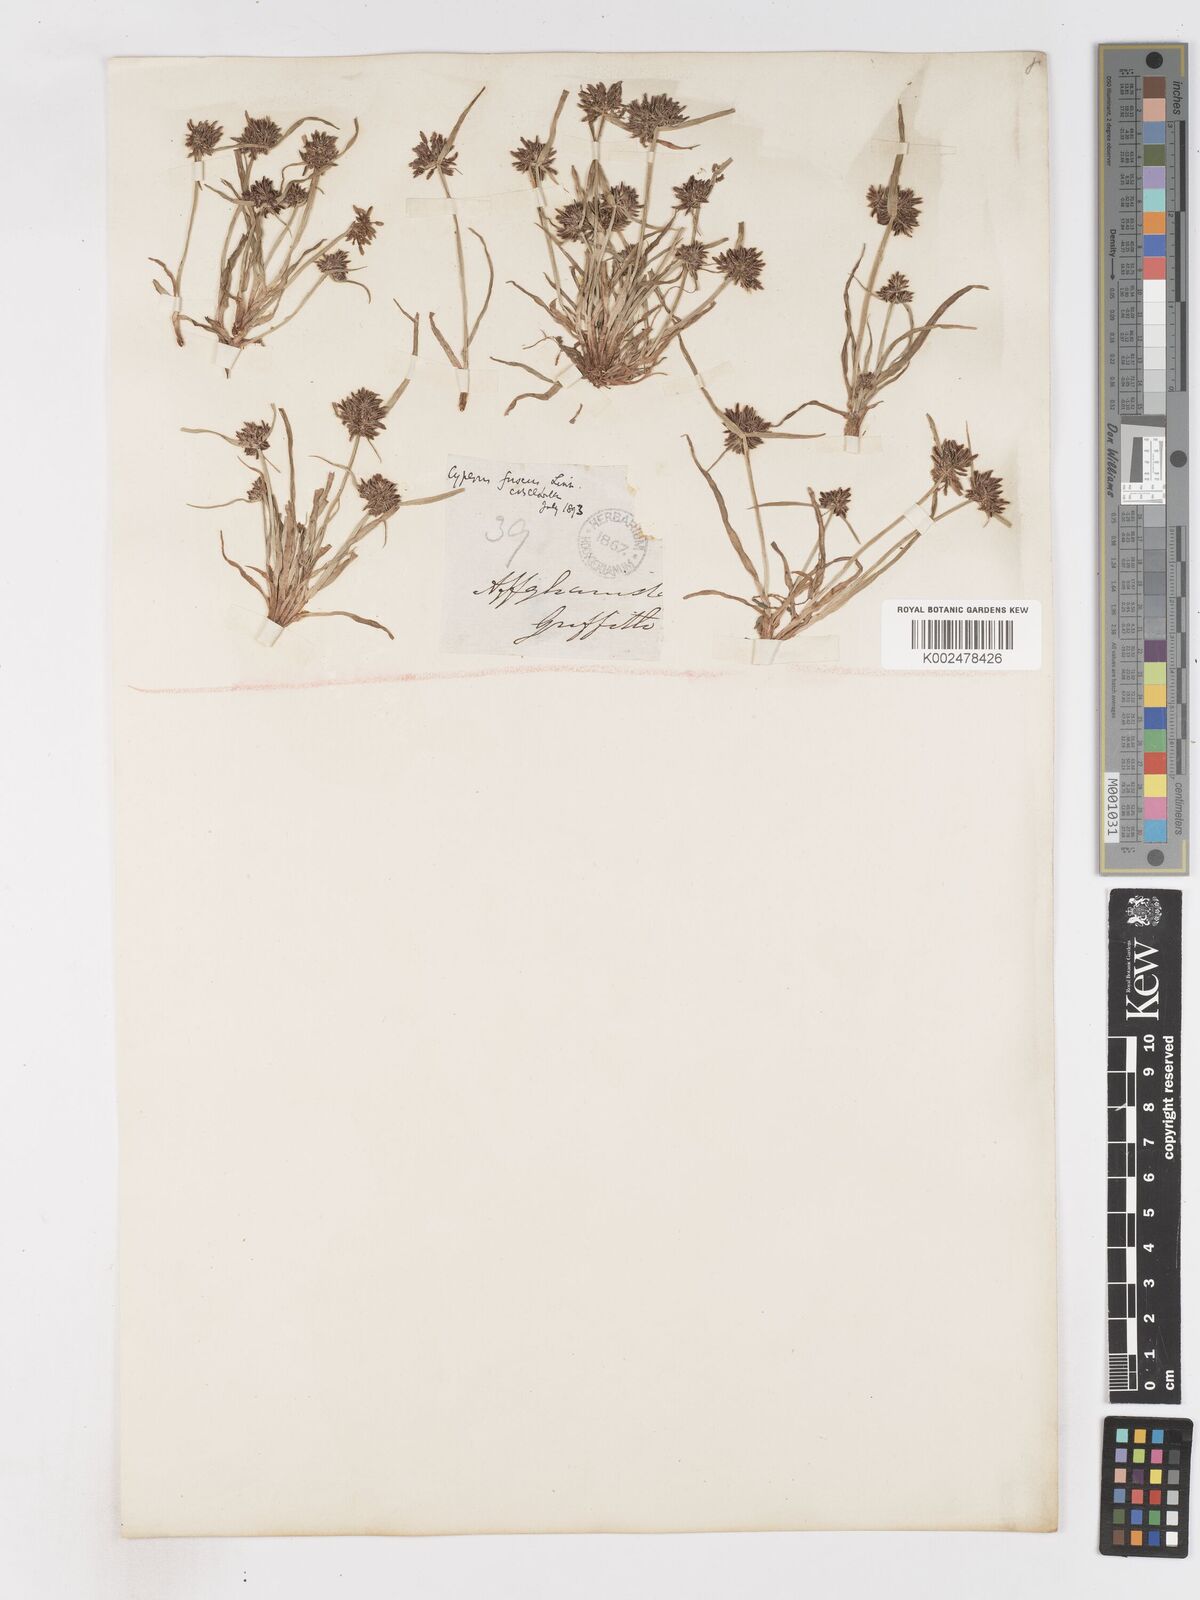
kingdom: Plantae
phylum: Tracheophyta
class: Liliopsida
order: Poales
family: Cyperaceae
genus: Cyperus
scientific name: Cyperus fuscus
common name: Brown galingale
